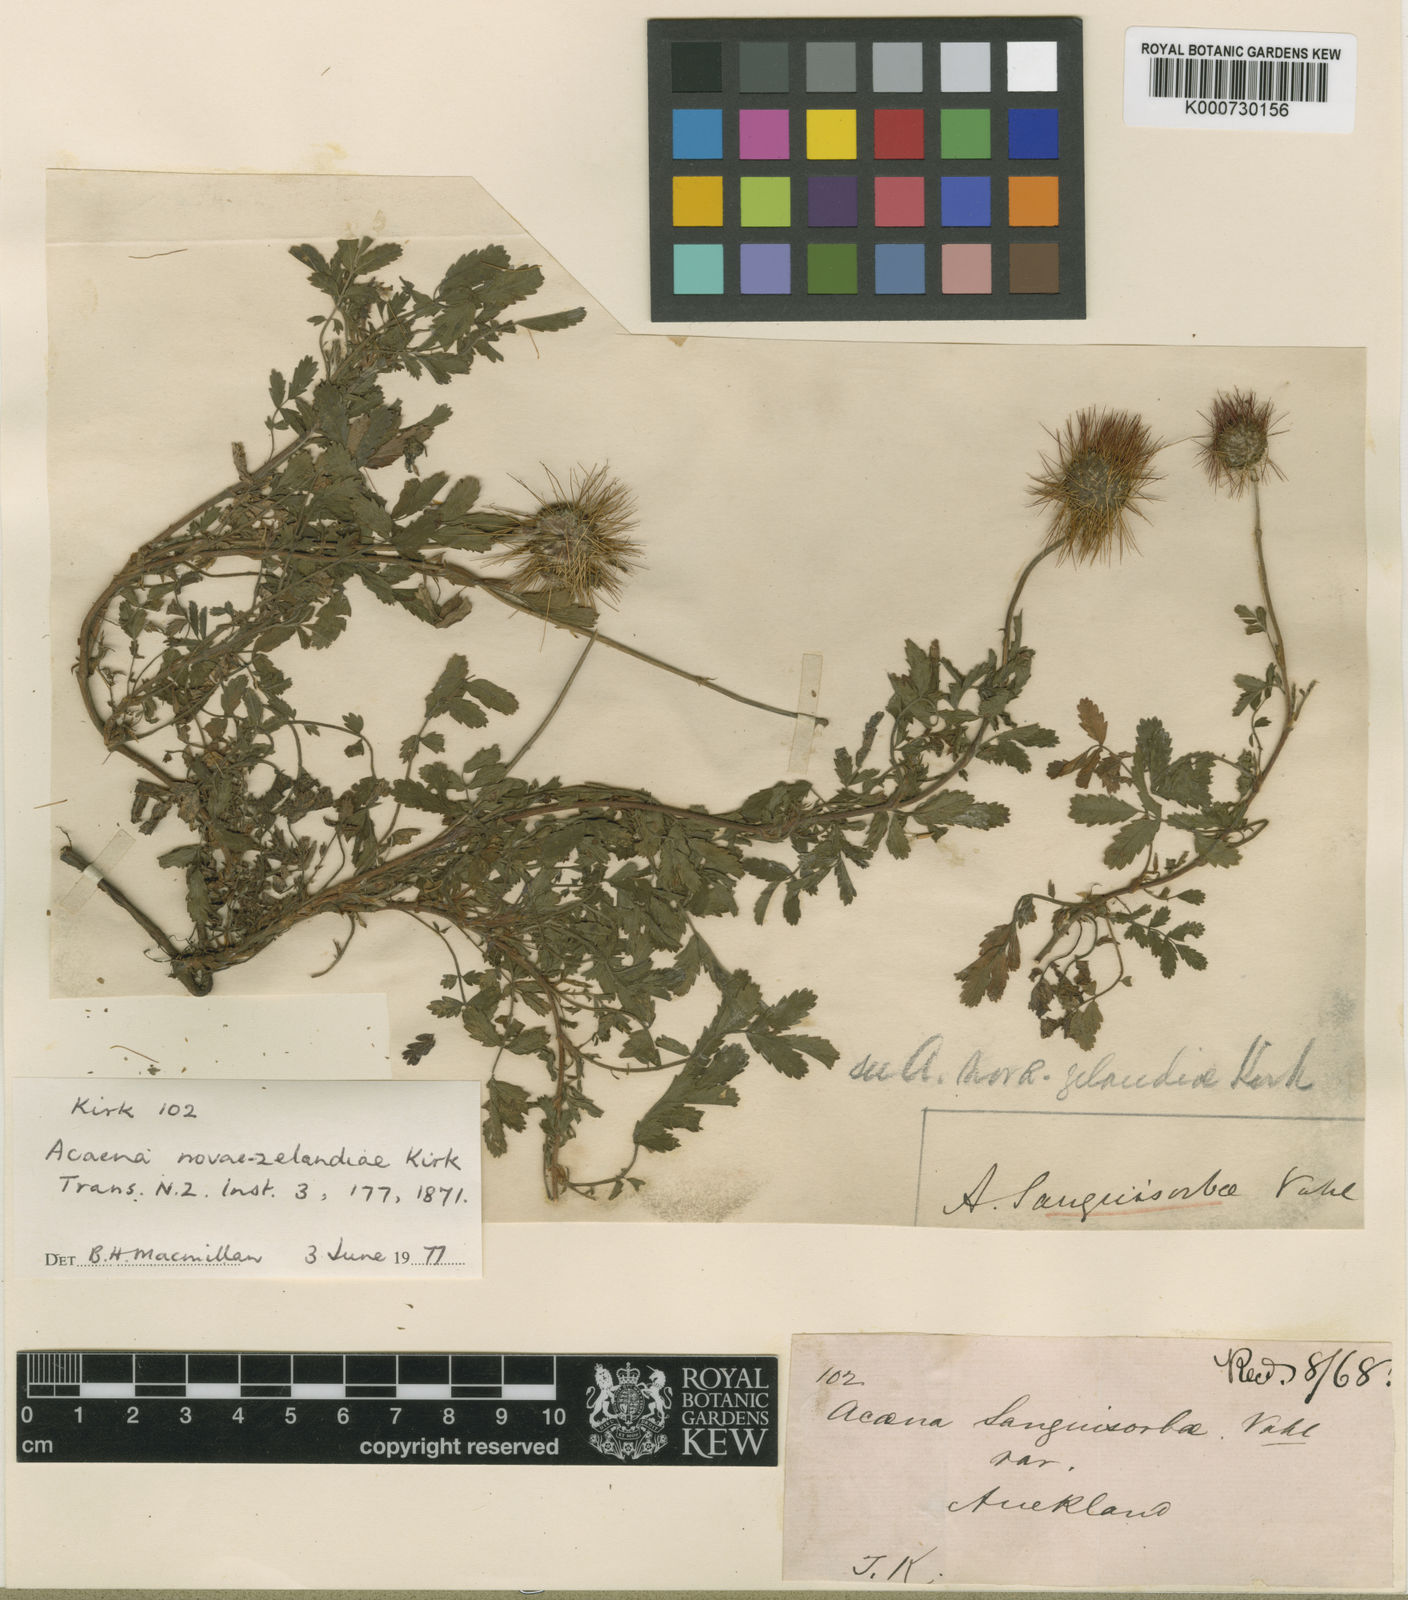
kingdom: Plantae
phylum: Tracheophyta
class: Magnoliopsida
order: Rosales
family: Rosaceae
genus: Acaena
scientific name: Acaena novae-zelandiae
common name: Pirri-pirri-bur
